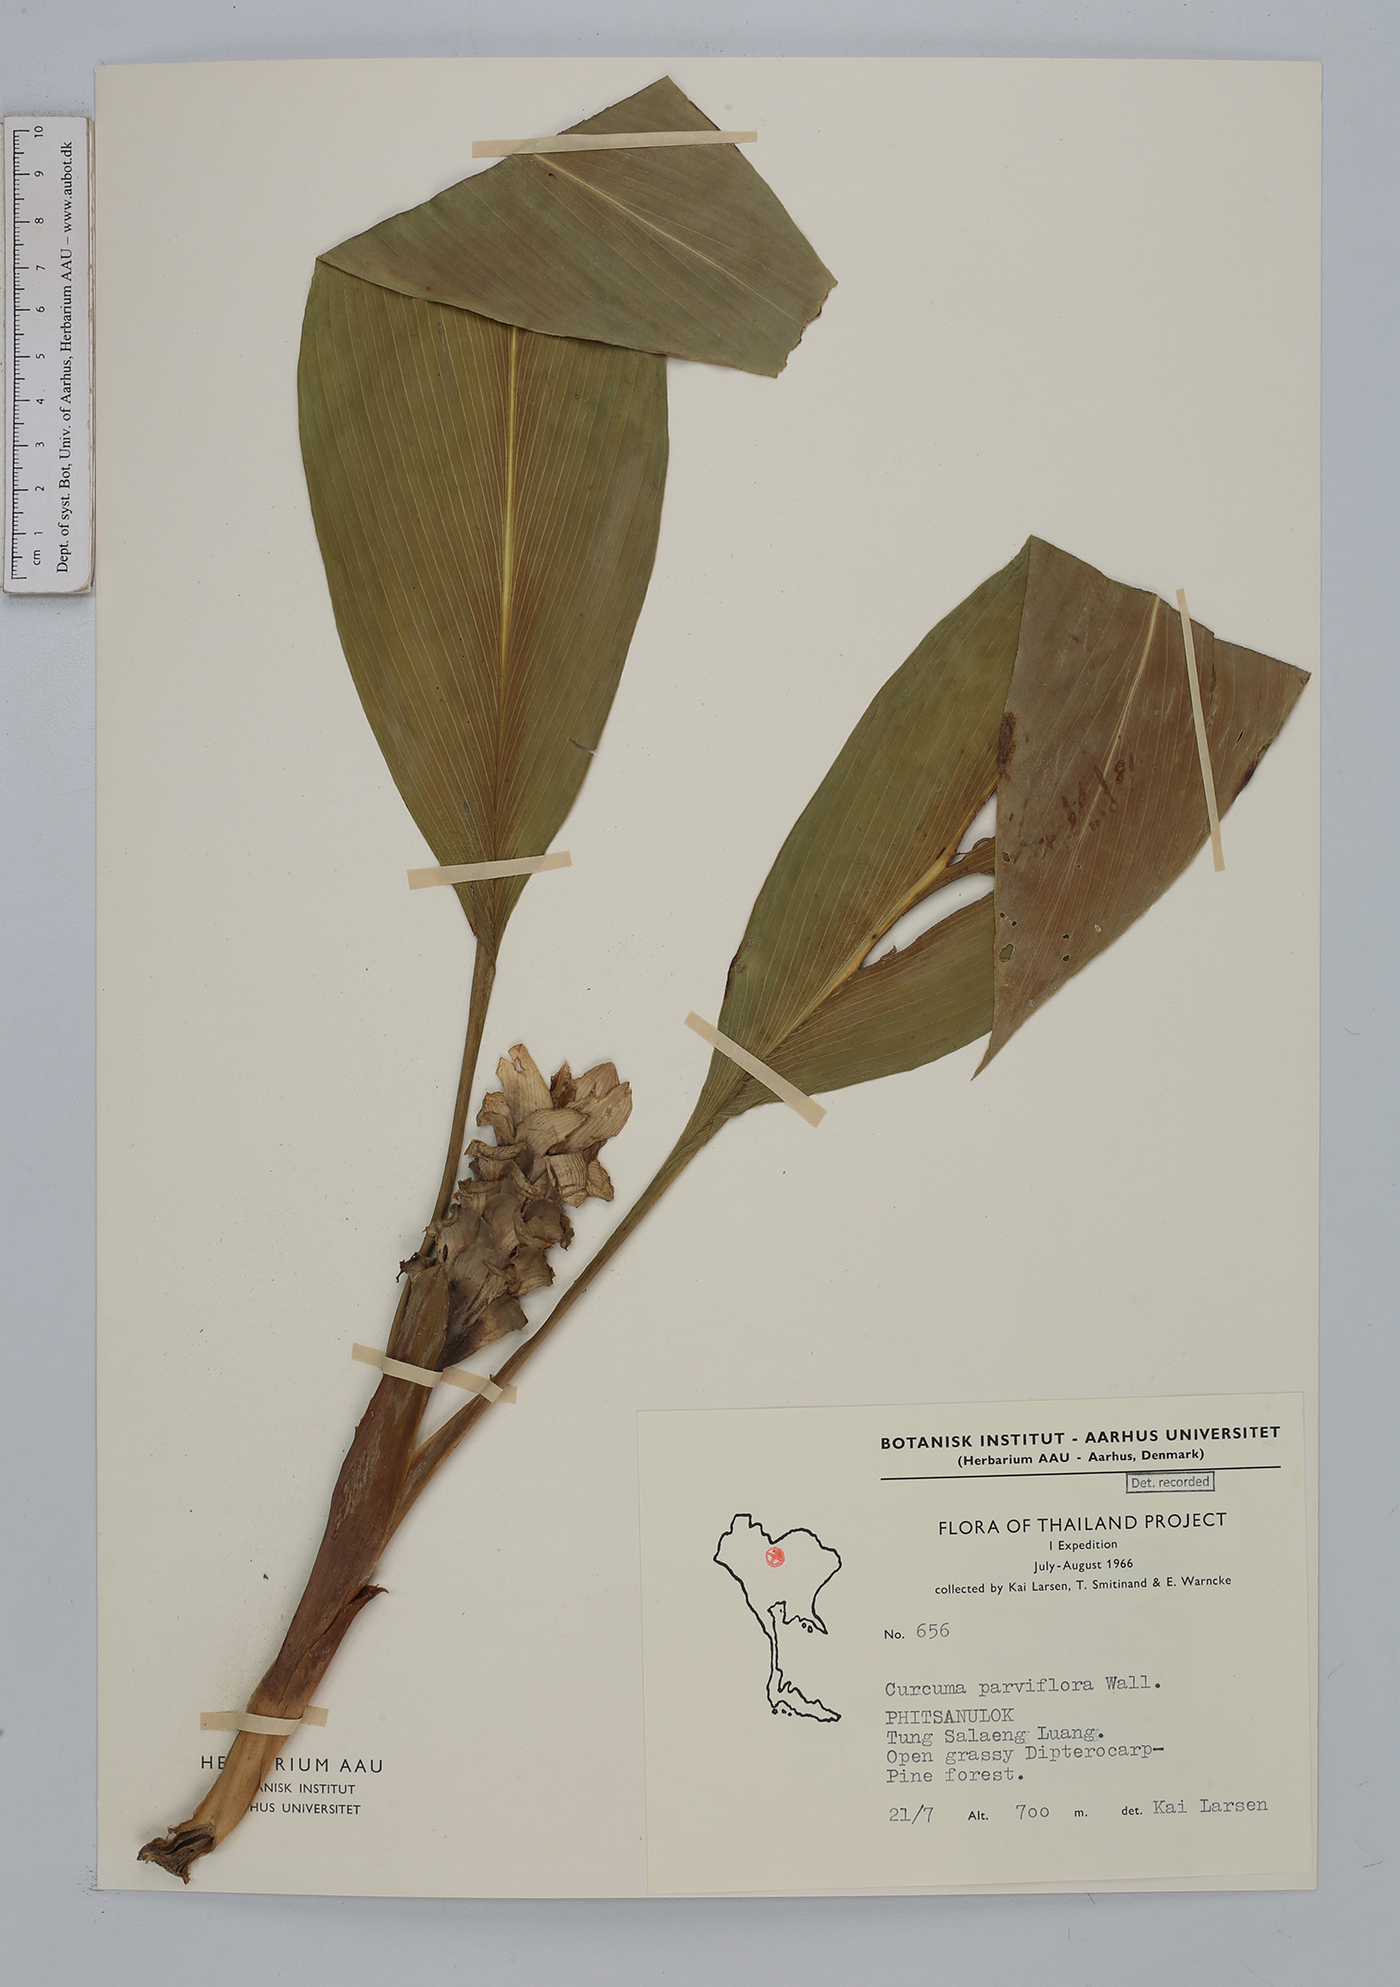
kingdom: Plantae
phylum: Tracheophyta
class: Liliopsida
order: Zingiberales
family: Zingiberaceae
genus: Curcuma
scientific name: Curcuma parviflora
